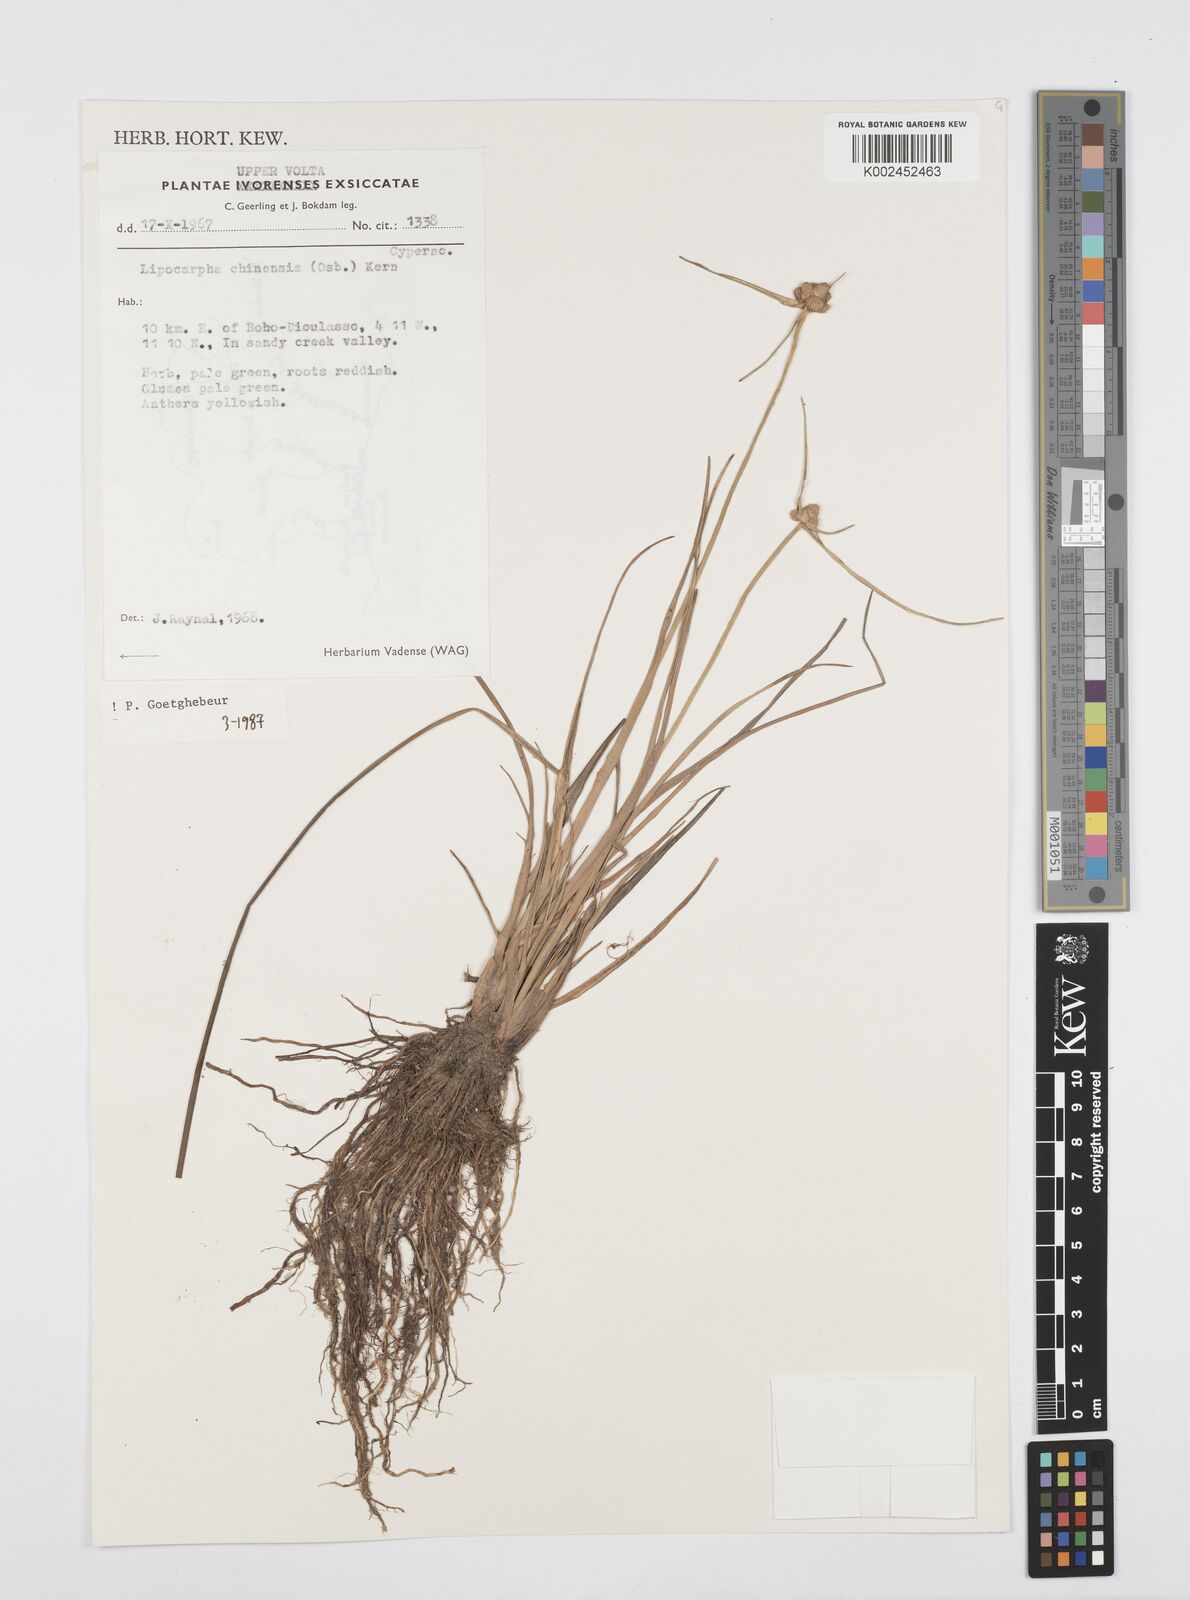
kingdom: Plantae
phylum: Tracheophyta
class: Liliopsida
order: Poales
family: Cyperaceae
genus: Cyperus
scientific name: Cyperus albescens
